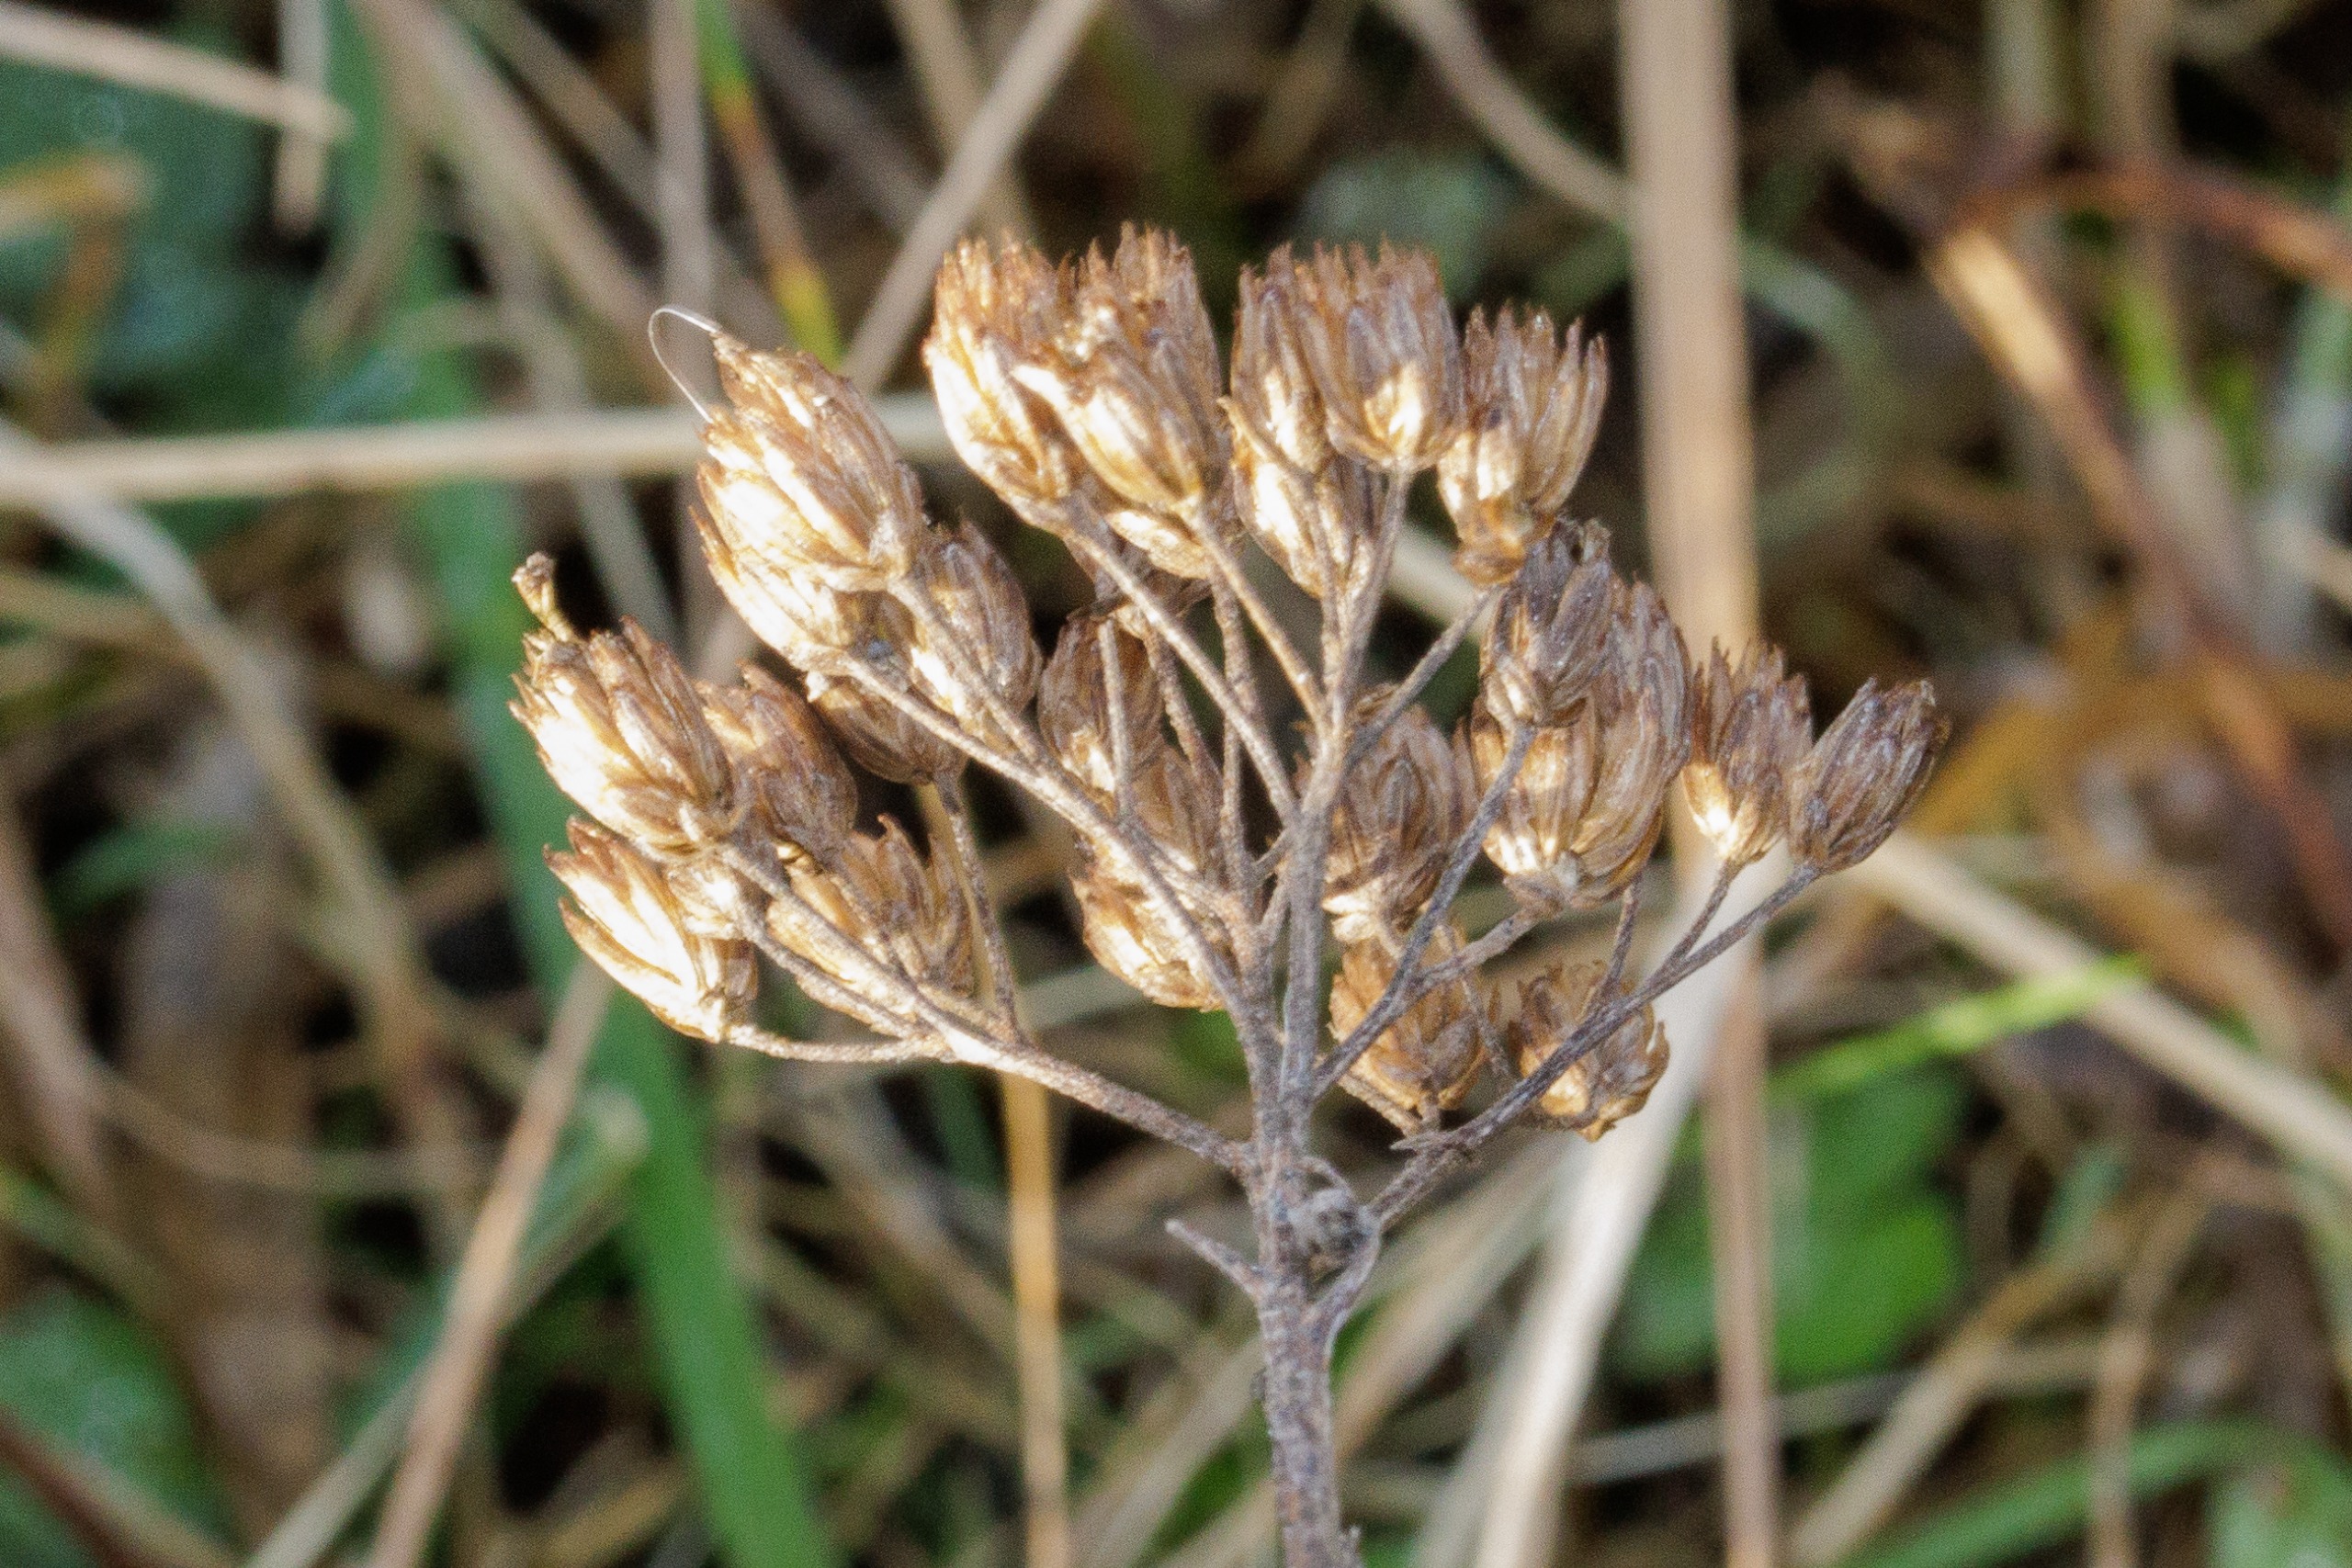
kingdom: Plantae
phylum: Tracheophyta
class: Magnoliopsida
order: Asterales
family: Asteraceae
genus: Achillea
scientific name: Achillea millefolium
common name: Almindelig røllike
